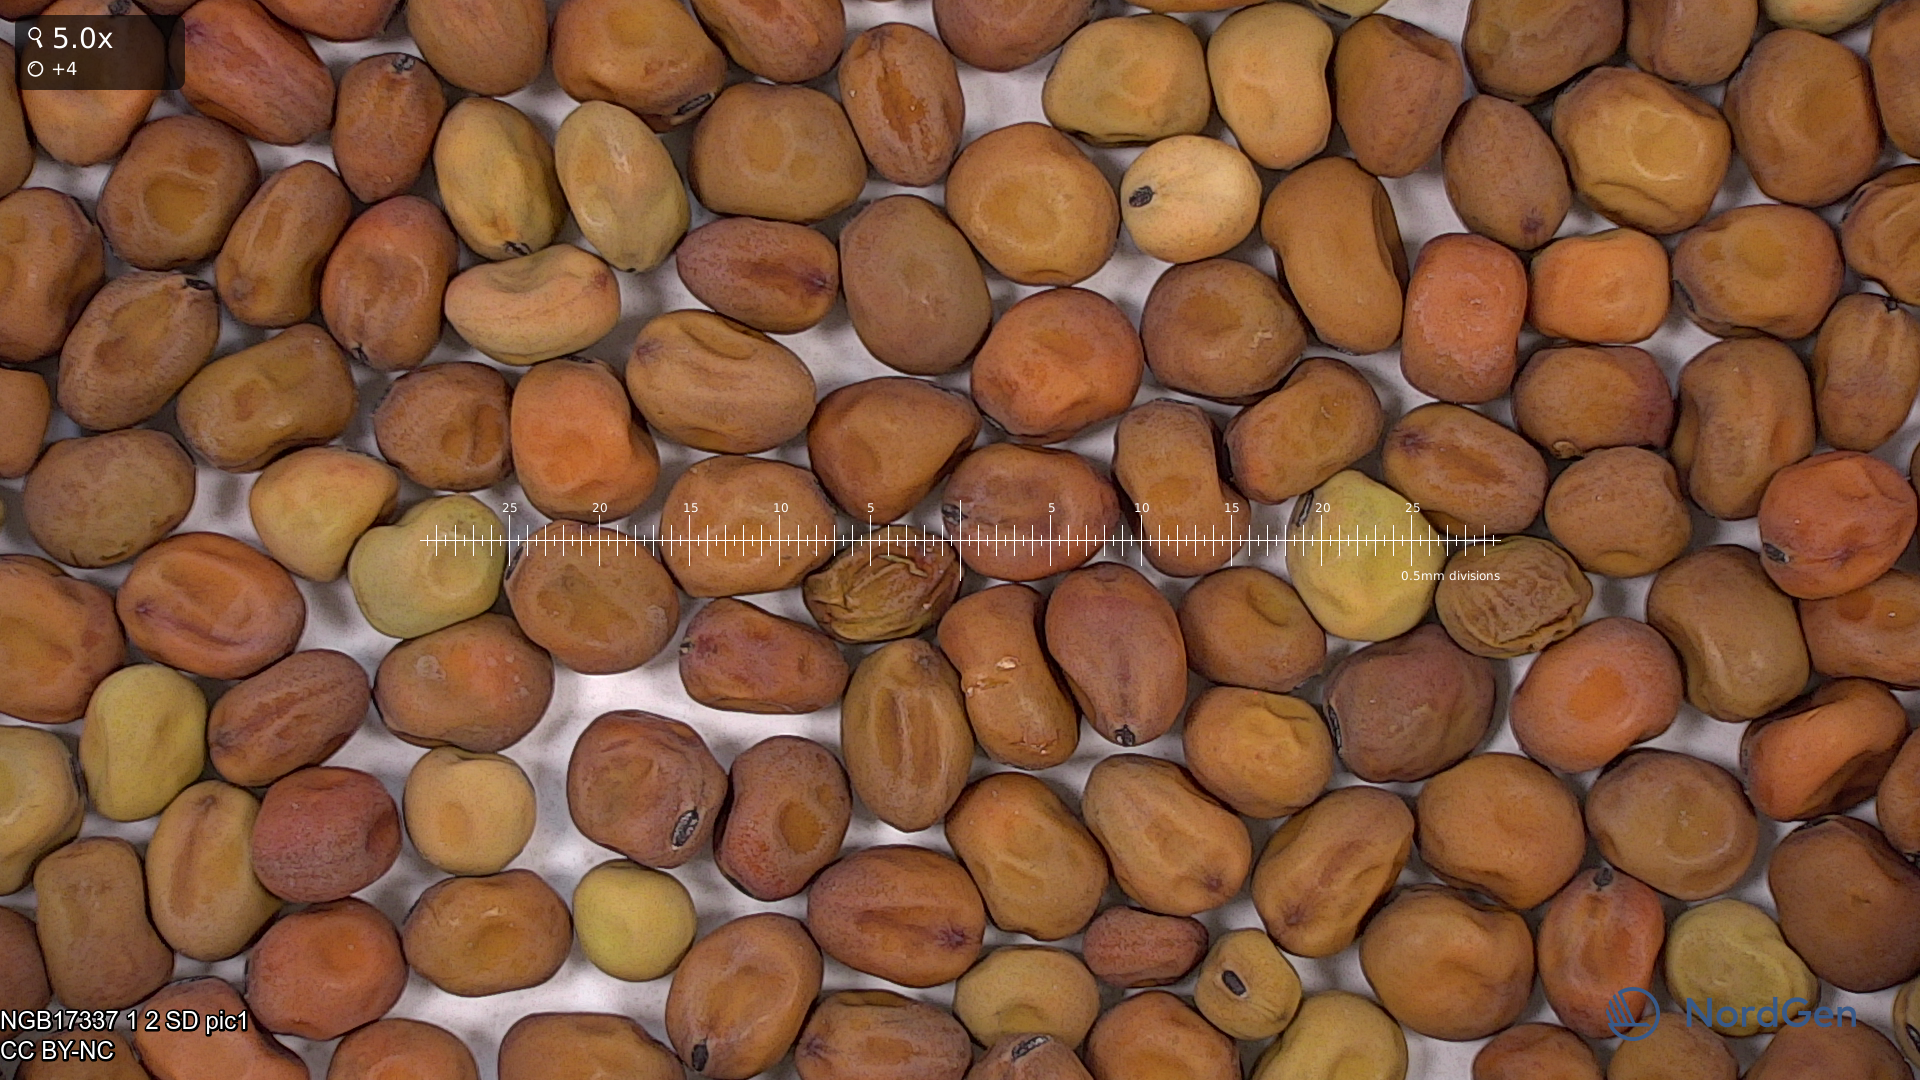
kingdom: Plantae
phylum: Tracheophyta
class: Magnoliopsida
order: Fabales
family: Fabaceae
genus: Lathyrus
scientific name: Lathyrus oleraceus
